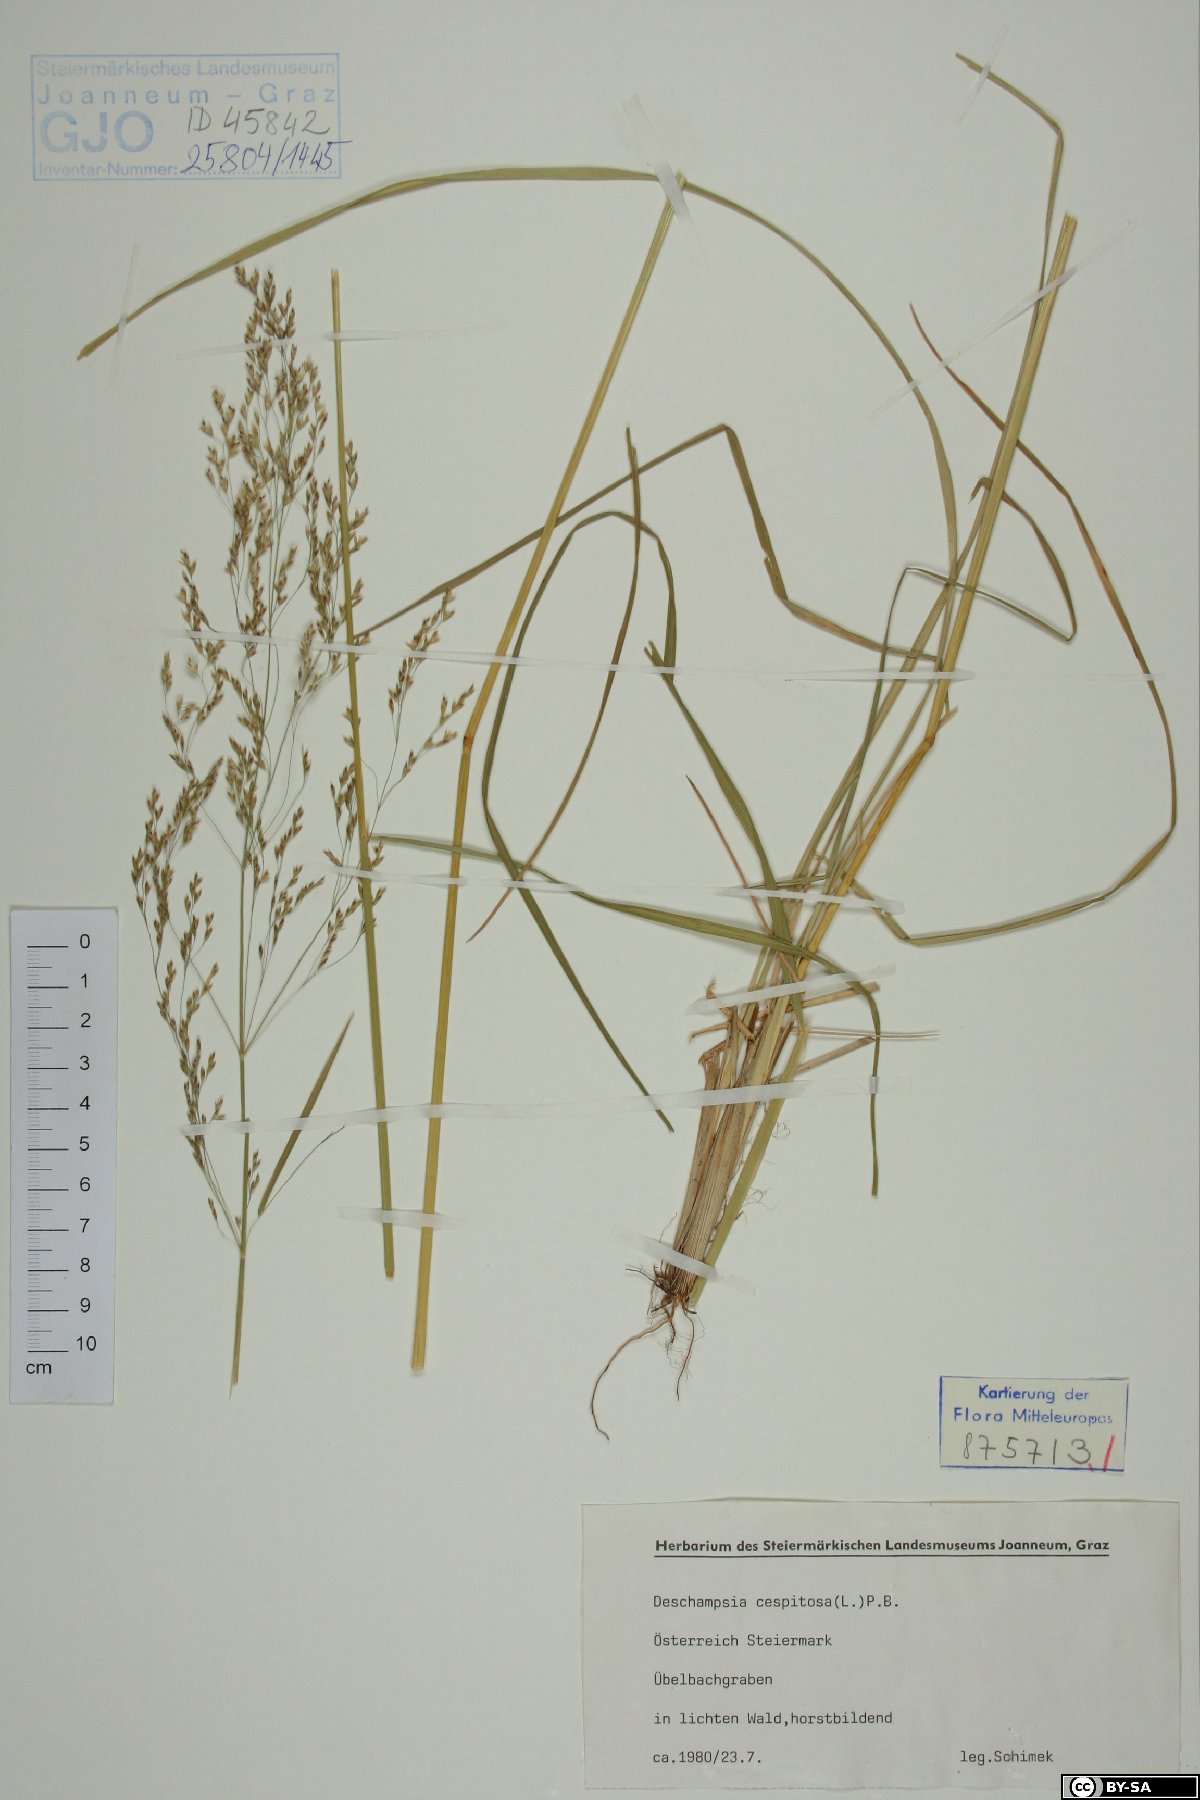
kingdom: Plantae
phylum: Tracheophyta
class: Liliopsida
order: Poales
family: Poaceae
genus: Deschampsia
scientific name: Deschampsia cespitosa
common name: Tufted hair-grass
